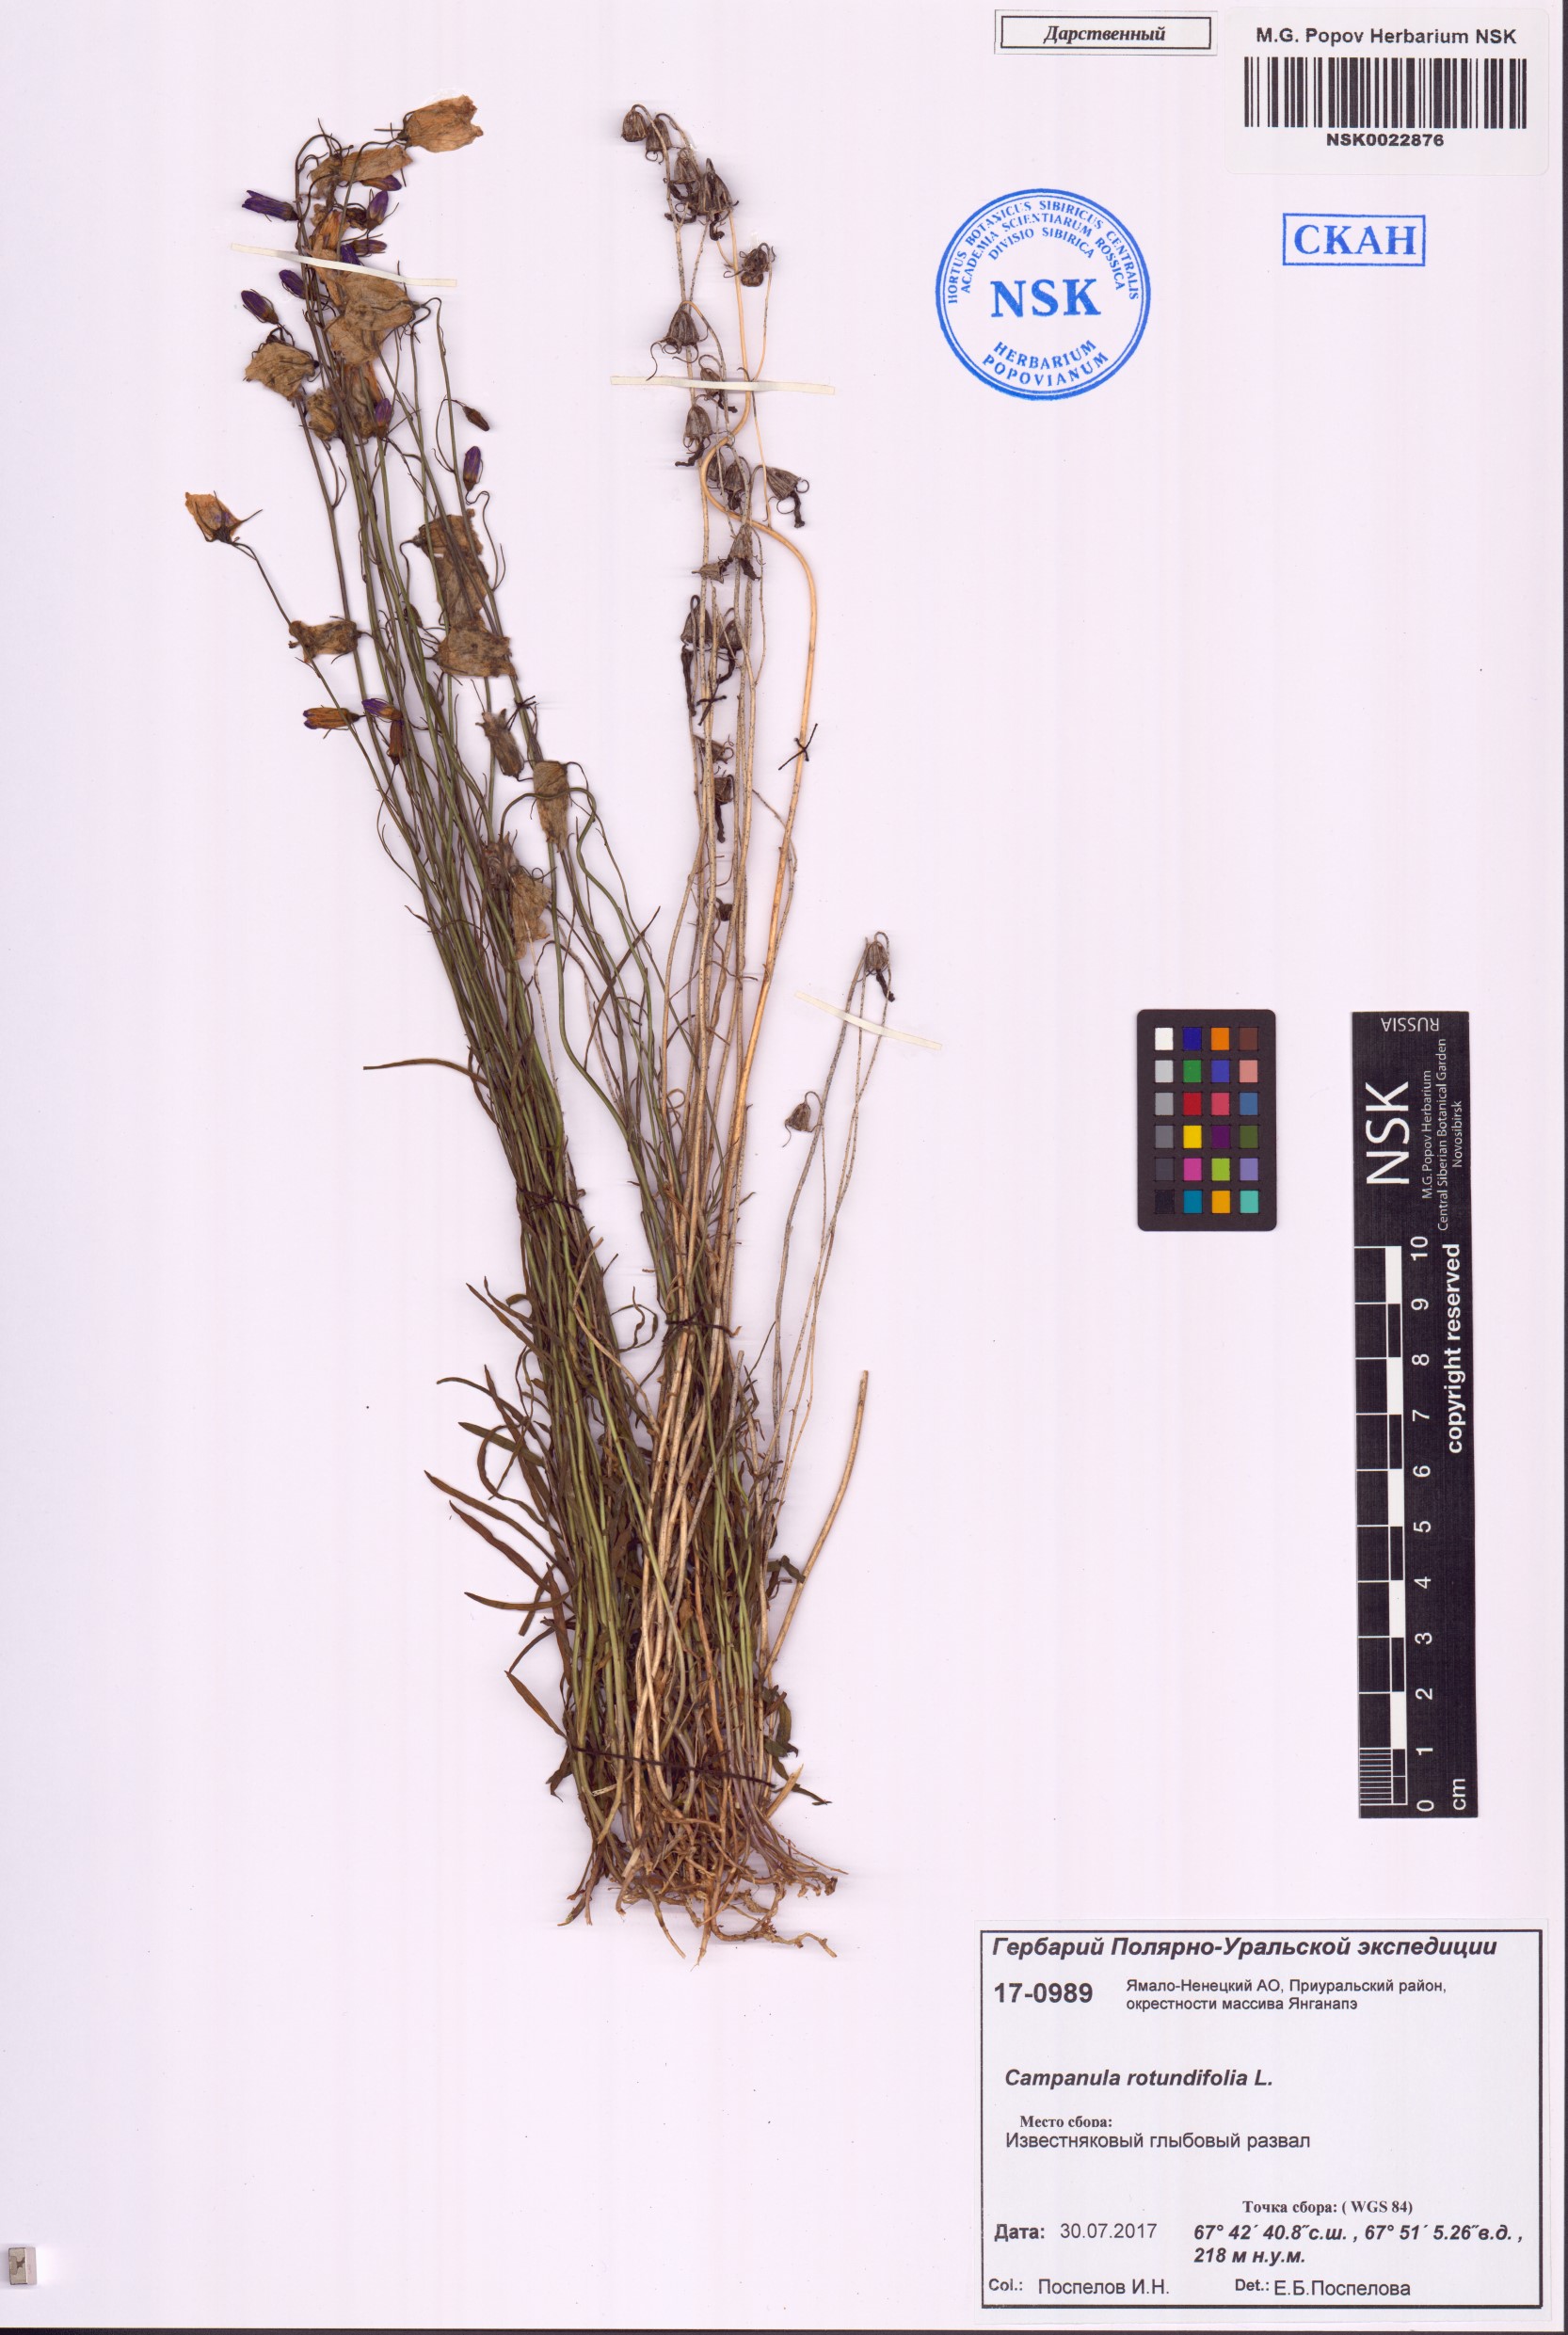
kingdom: Plantae
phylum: Tracheophyta
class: Magnoliopsida
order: Asterales
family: Campanulaceae
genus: Campanula
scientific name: Campanula rotundifolia
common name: Harebell
